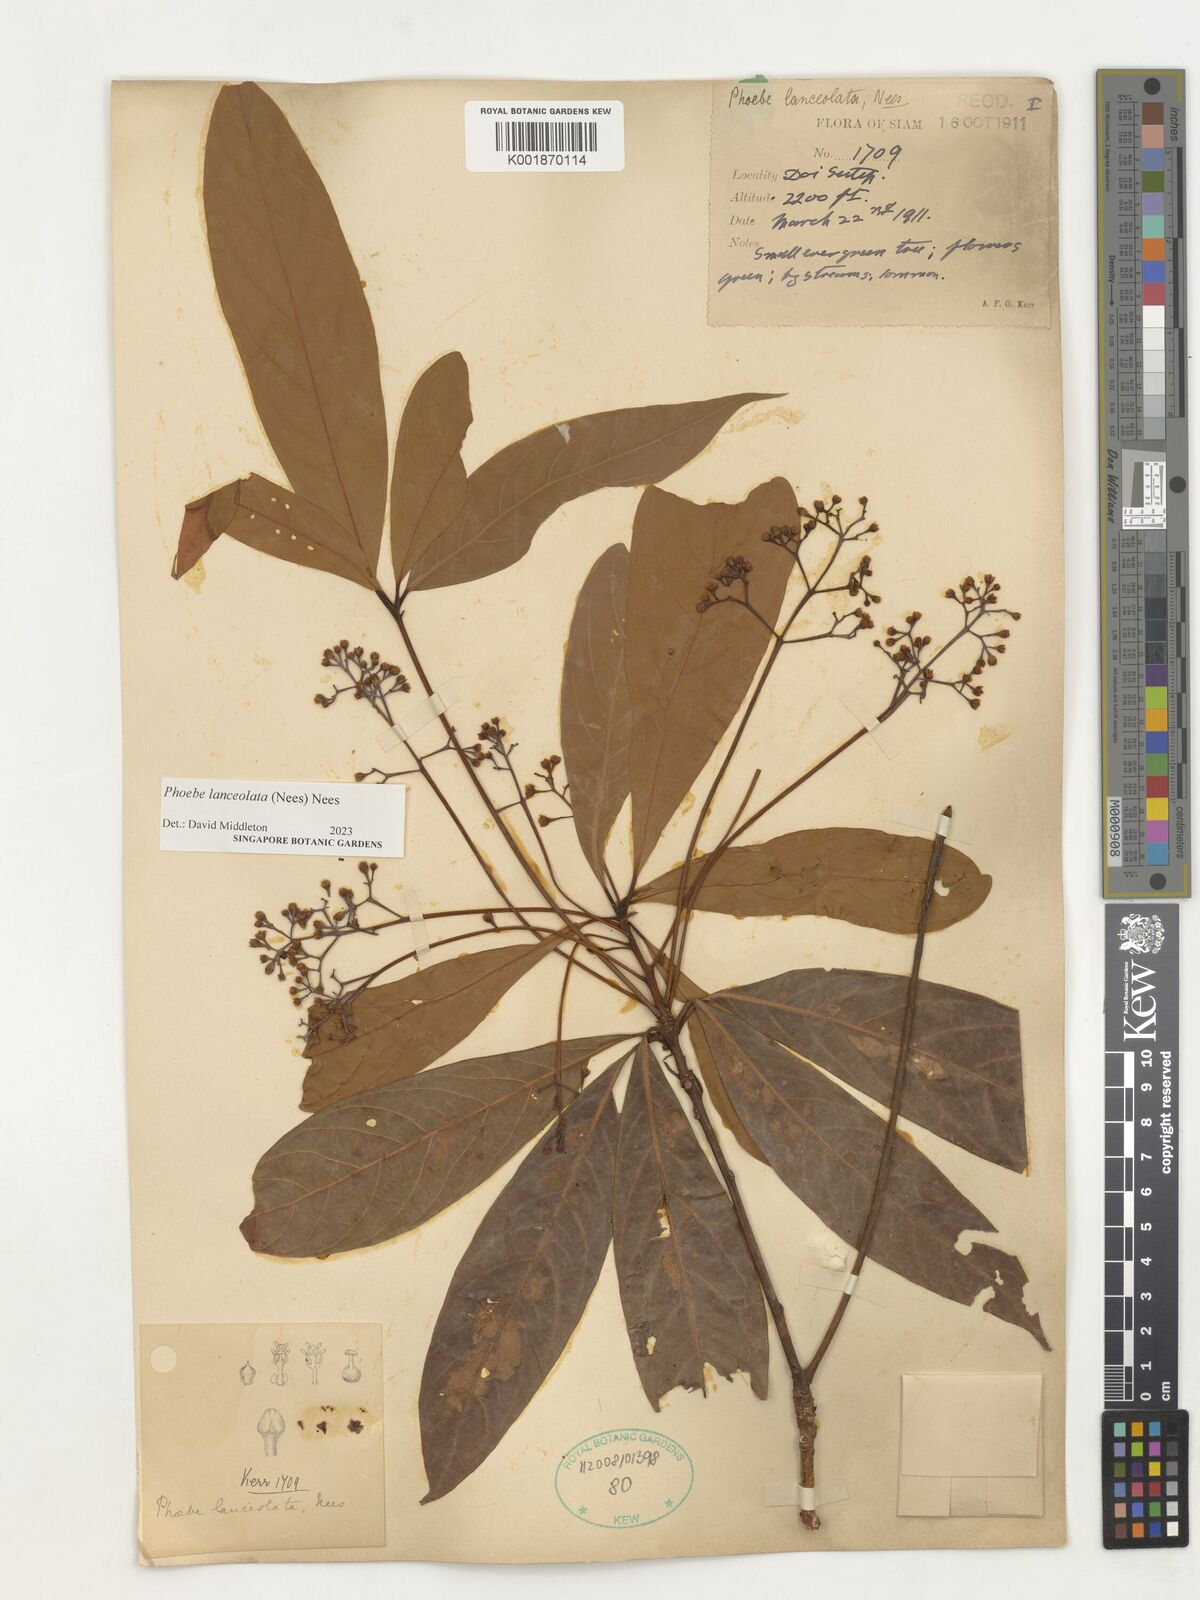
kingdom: Plantae
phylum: Tracheophyta
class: Magnoliopsida
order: Laurales
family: Lauraceae
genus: Phoebe
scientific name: Phoebe lanceolata
